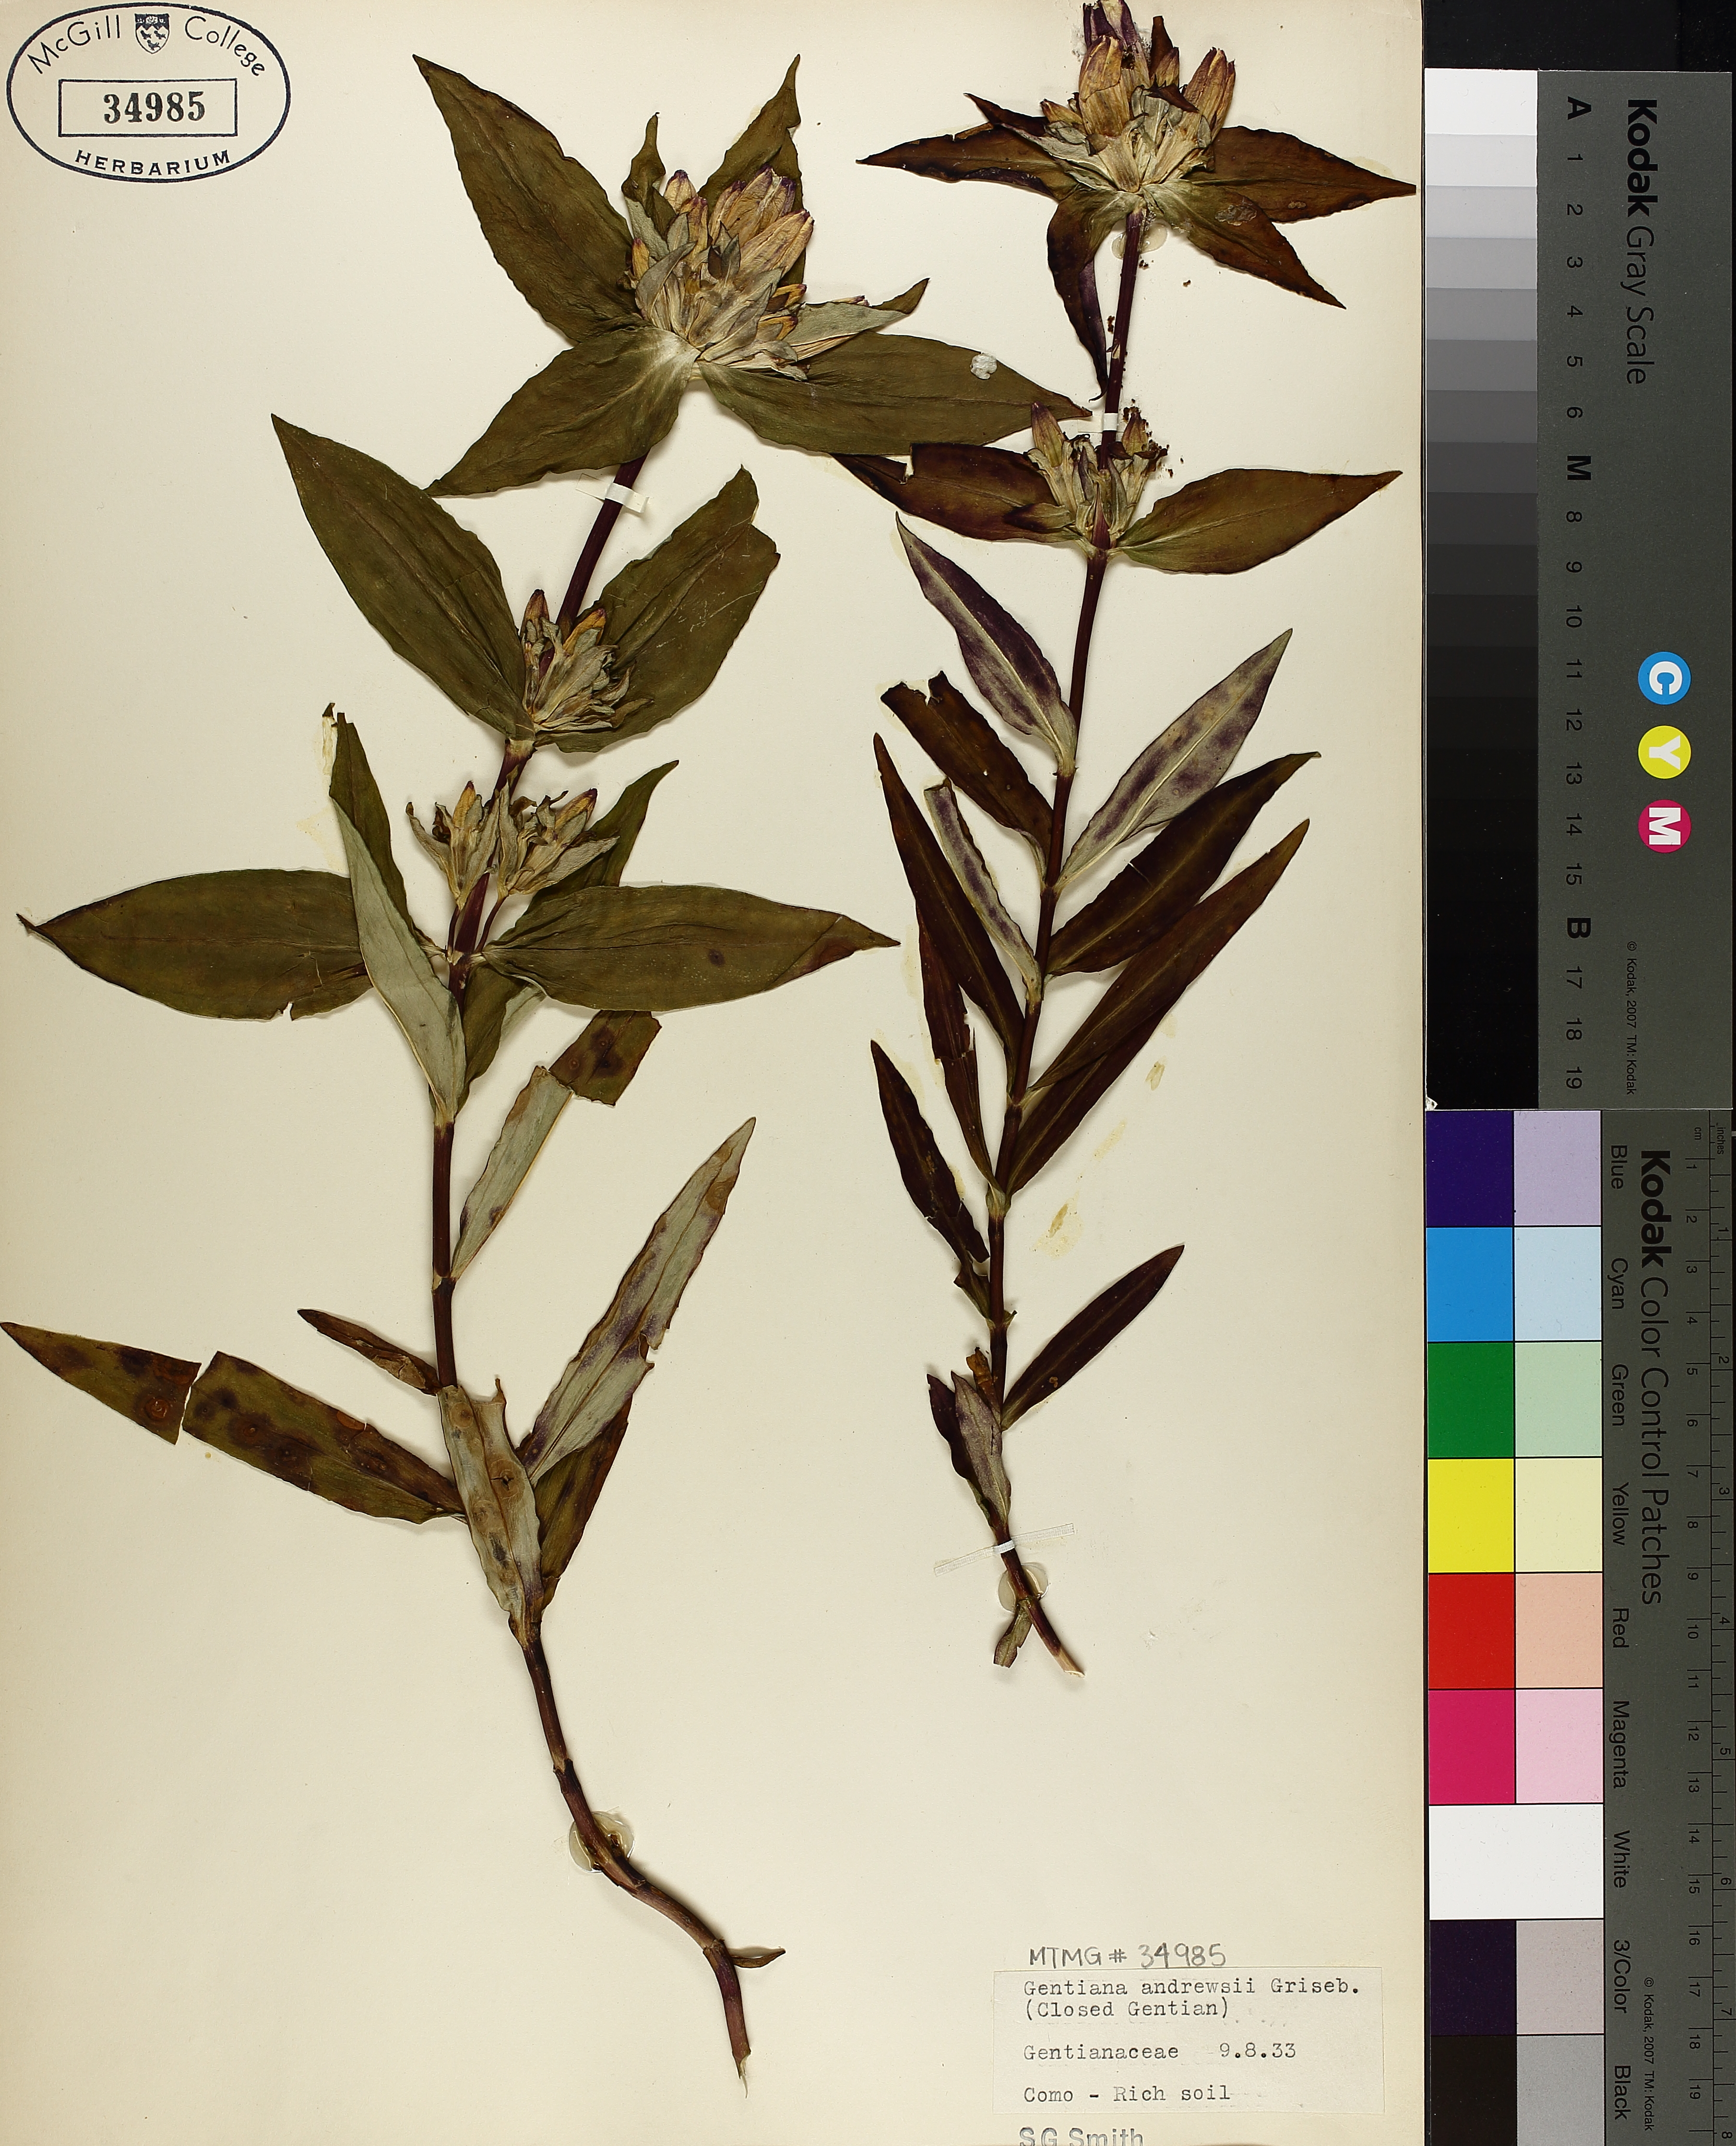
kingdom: Plantae
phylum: Tracheophyta
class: Magnoliopsida
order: Gentianales
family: Gentianaceae
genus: Gentiana
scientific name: Gentiana andrewsii
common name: Bottle gentian
